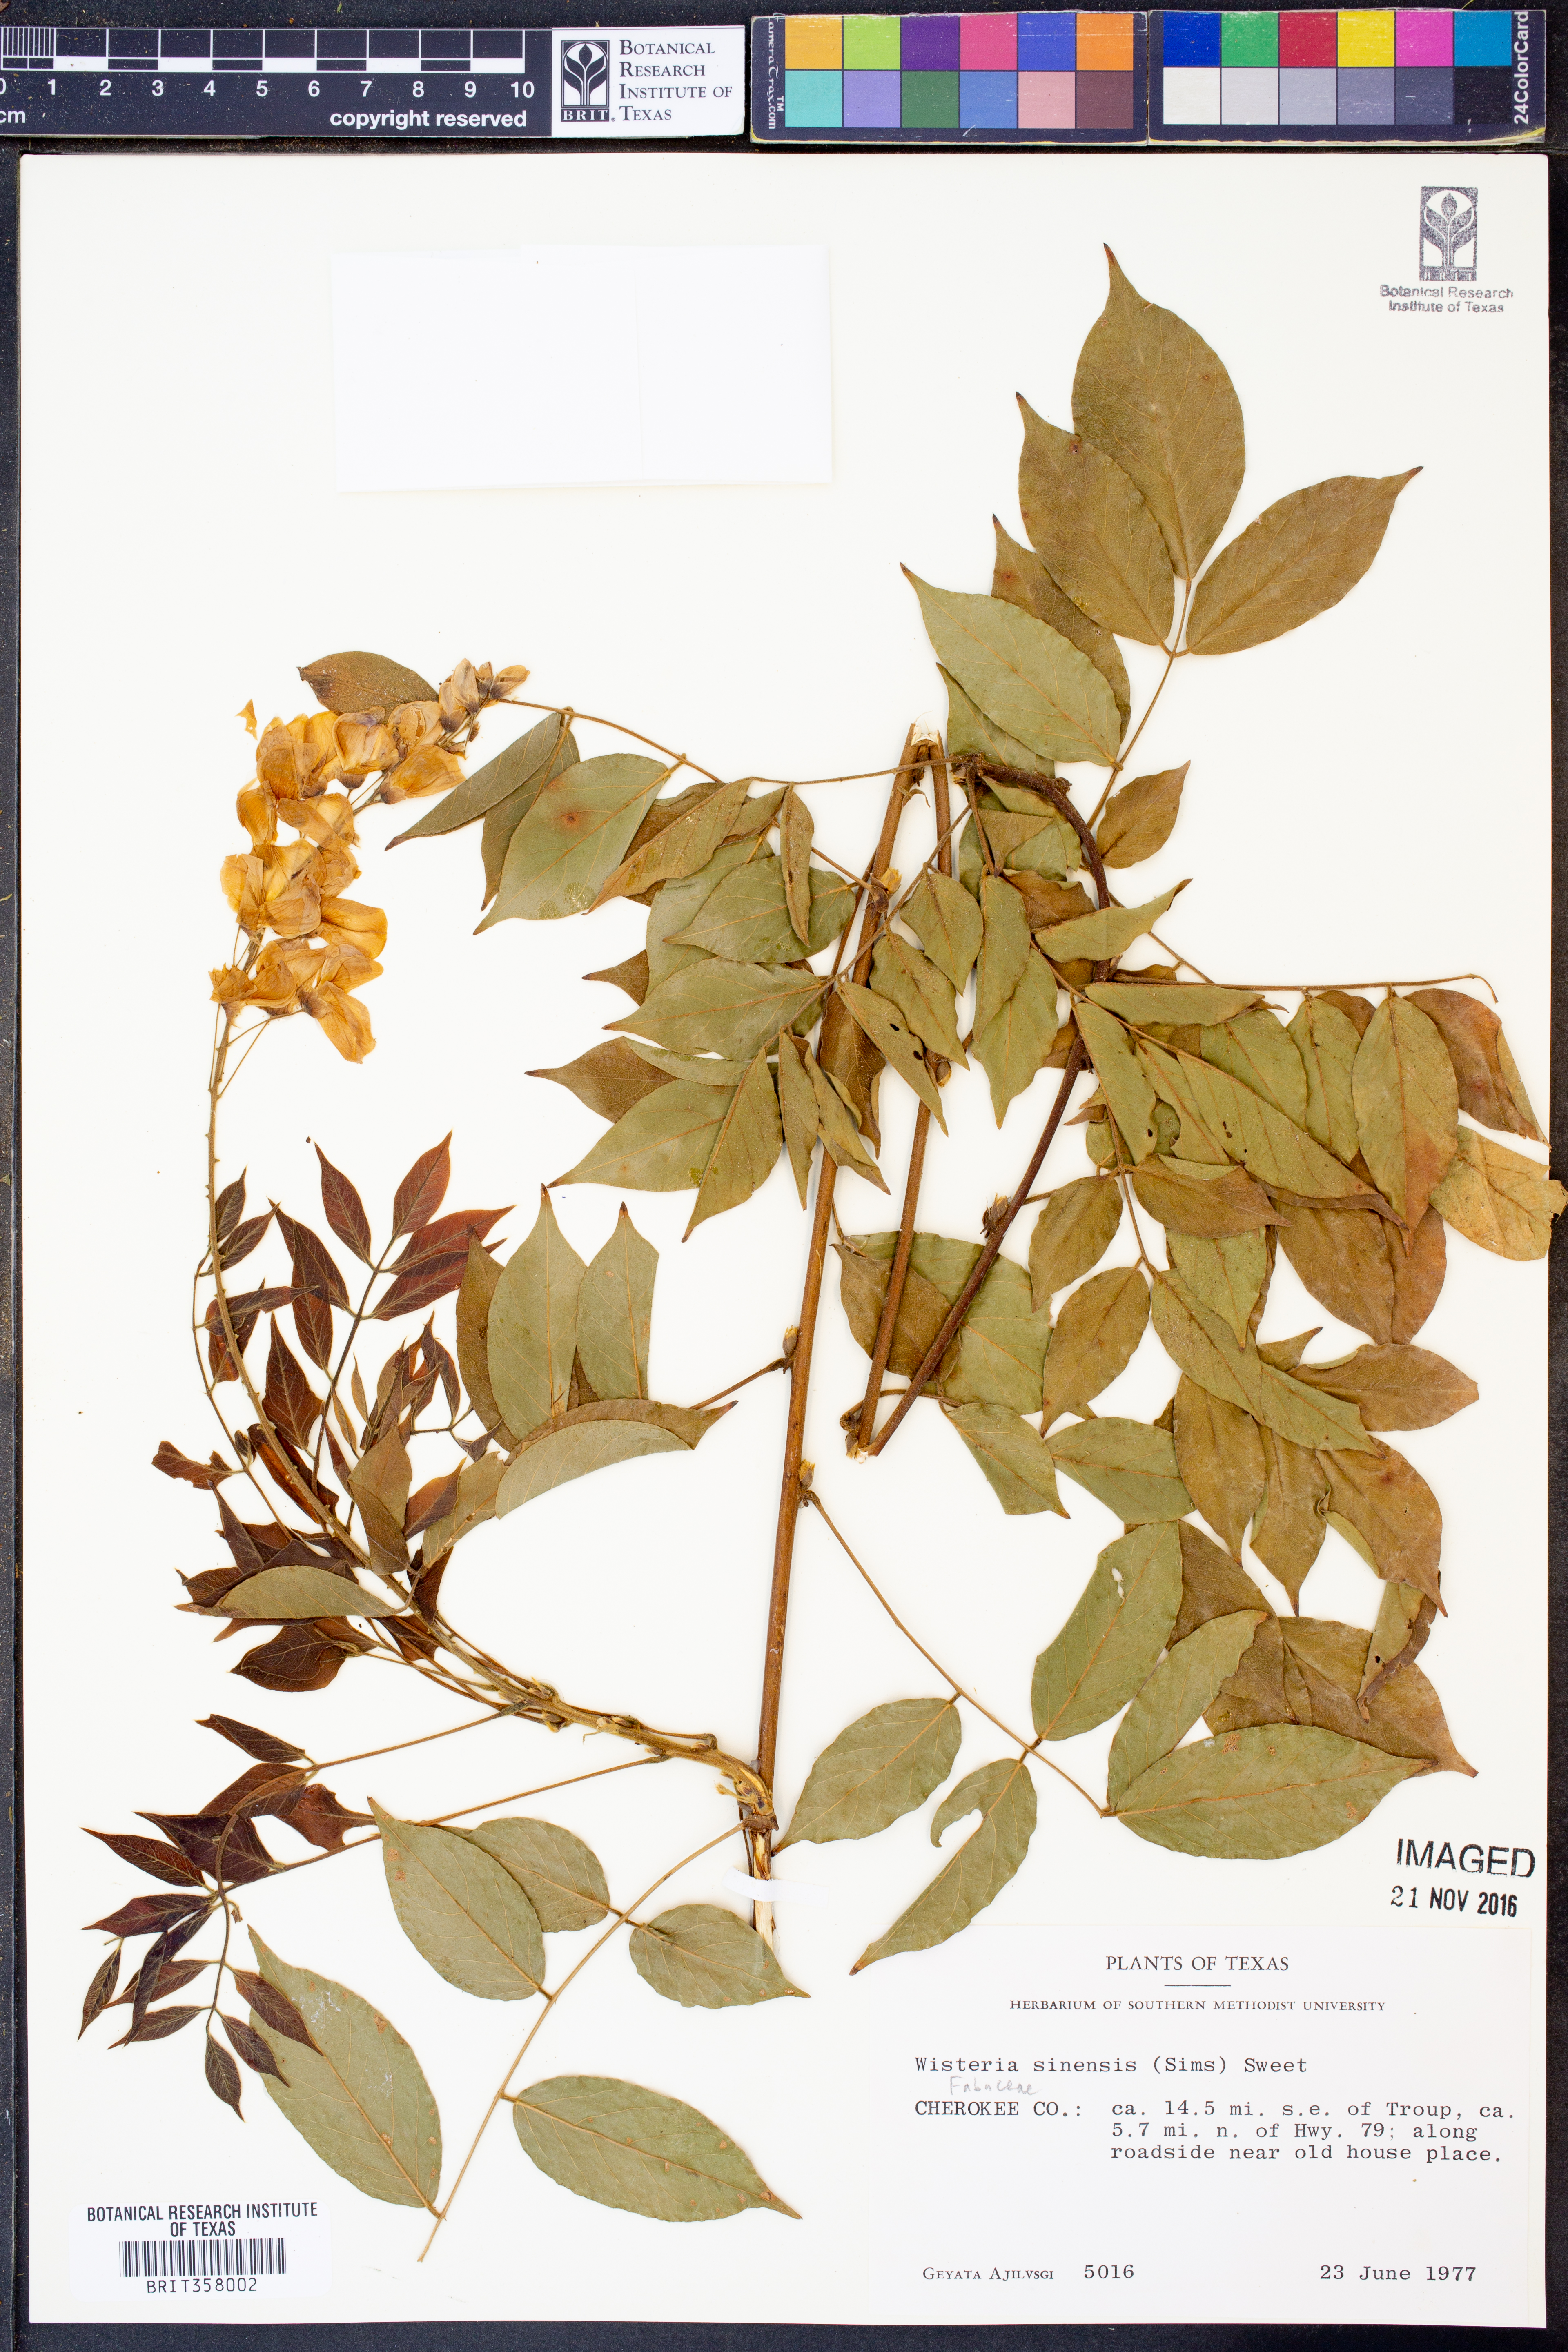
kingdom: Plantae
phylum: Tracheophyta
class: Magnoliopsida
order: Fabales
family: Fabaceae
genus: Wisteria
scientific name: Wisteria sinensis
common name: Chinese wisteria
